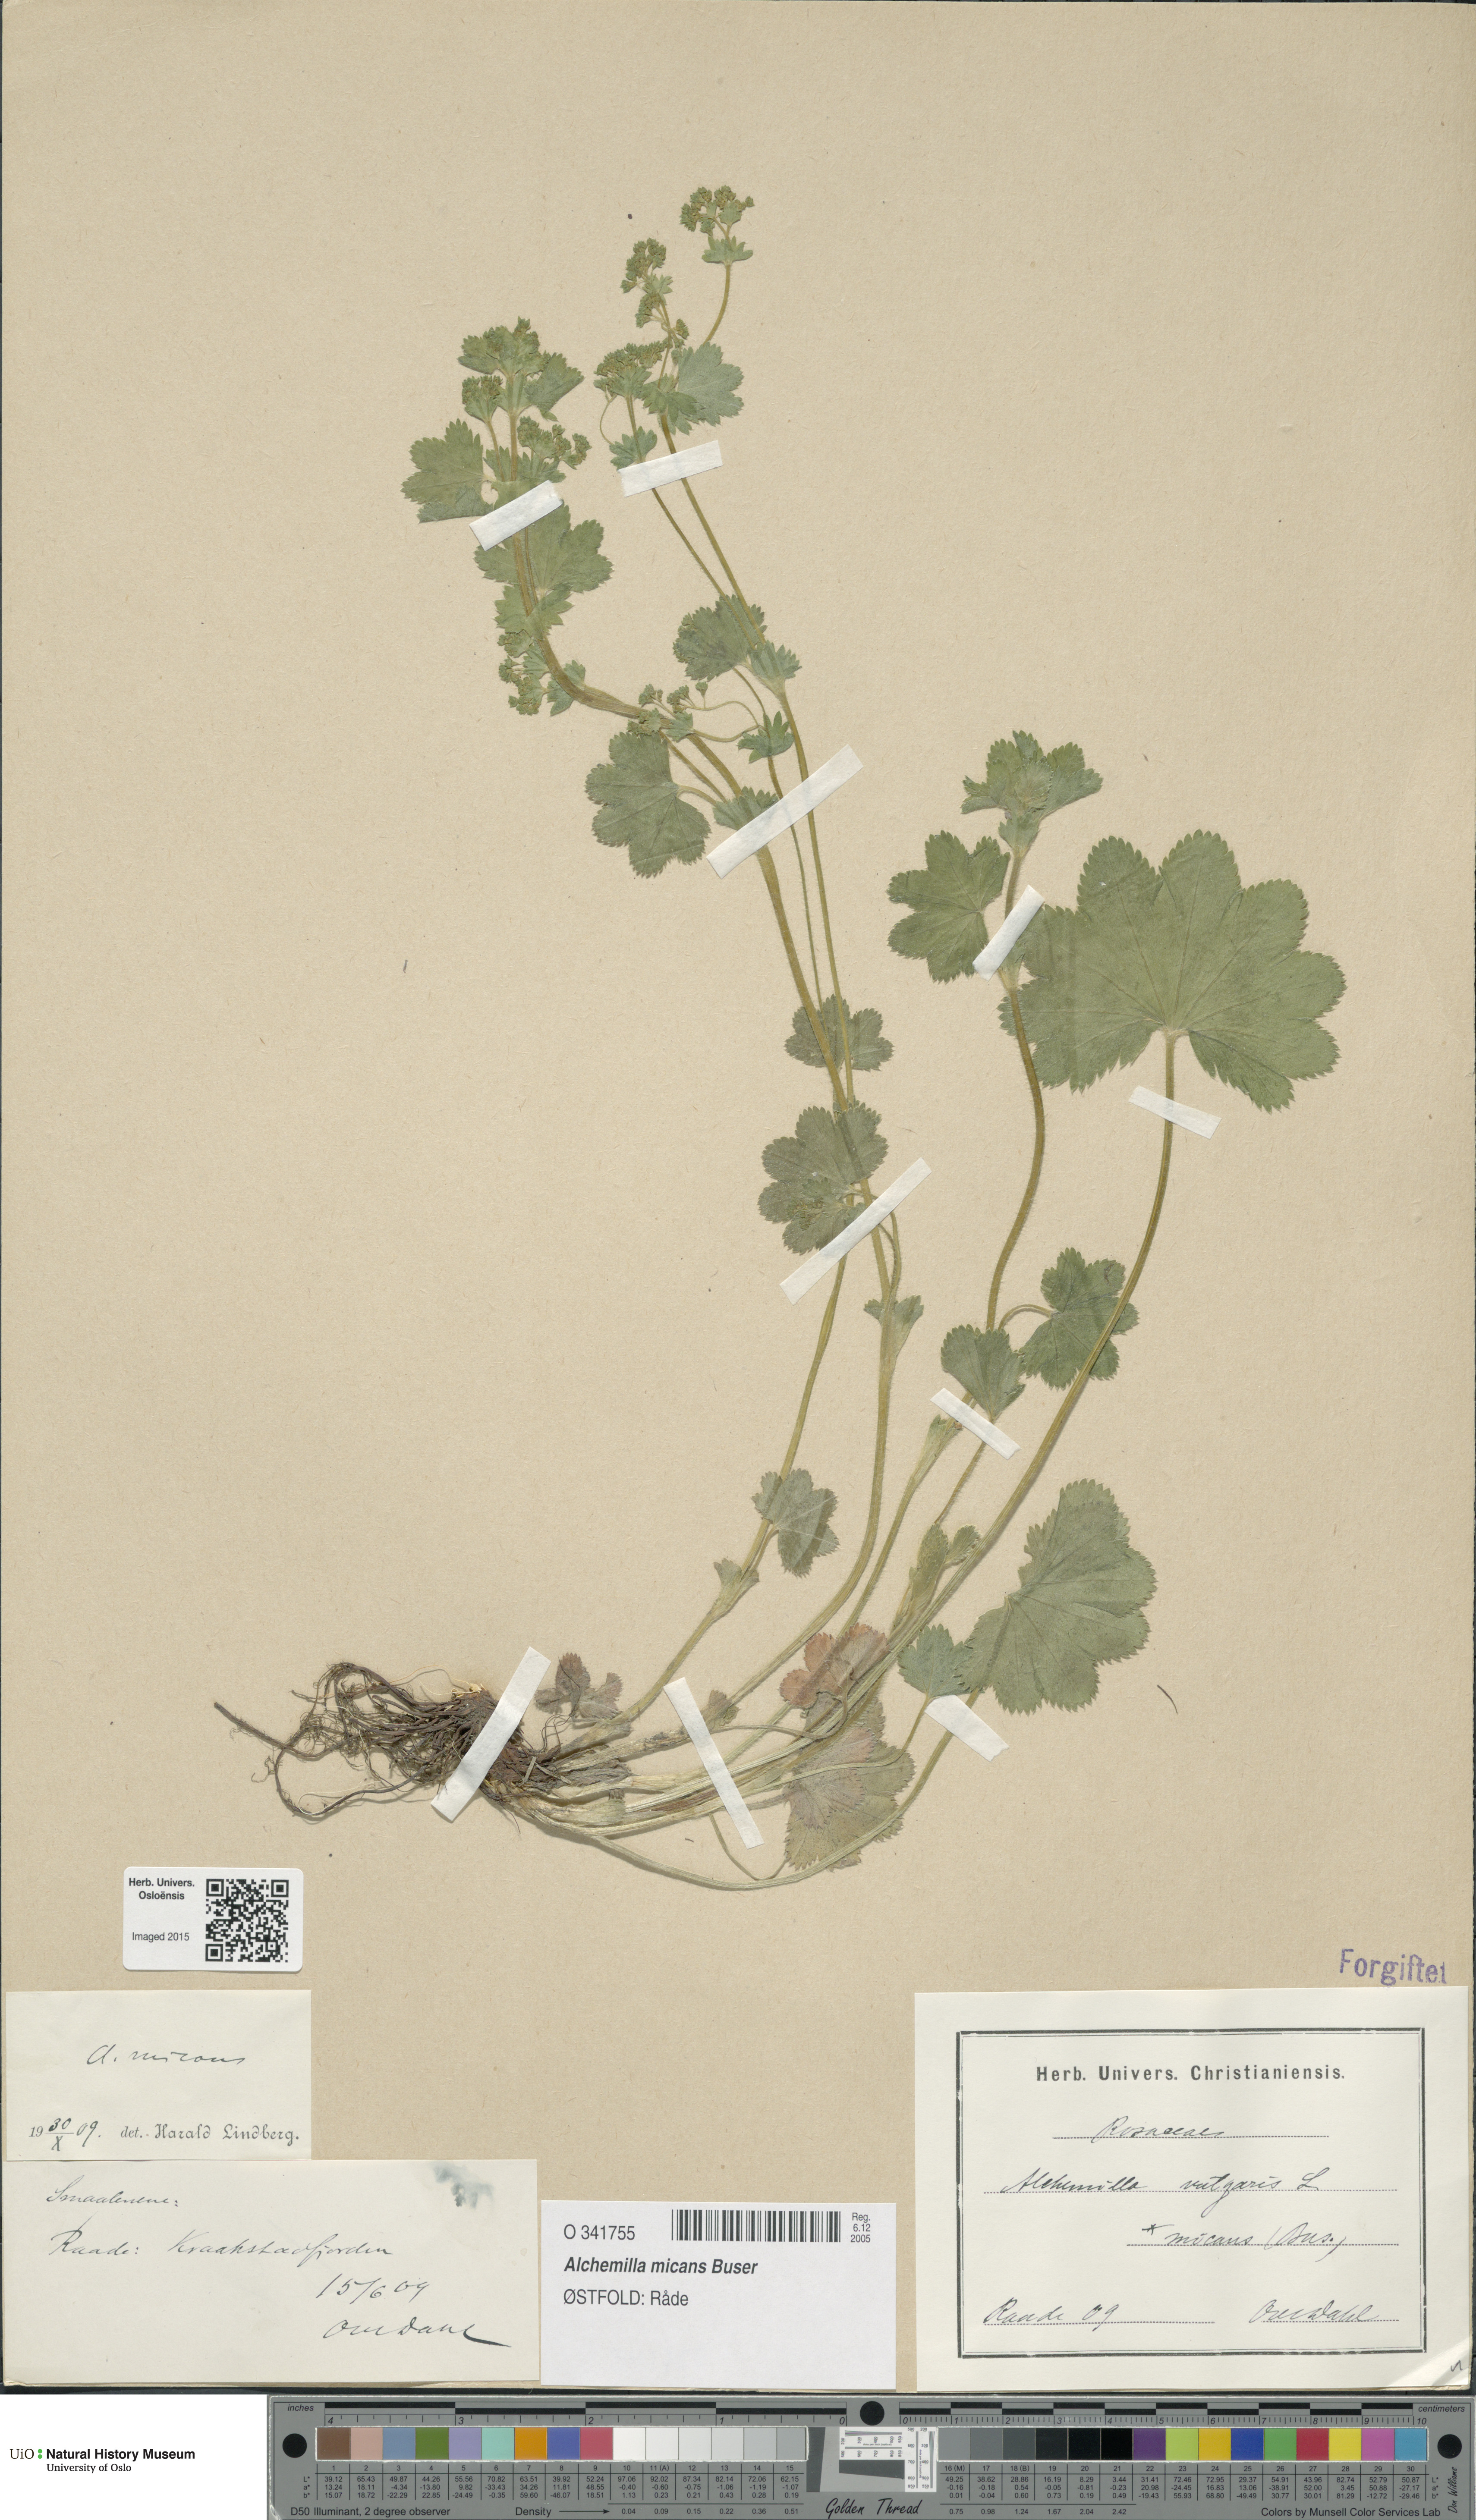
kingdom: Plantae
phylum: Tracheophyta
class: Magnoliopsida
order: Rosales
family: Rosaceae
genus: Alchemilla
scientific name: Alchemilla micans
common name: Gleaming lady's mantle
